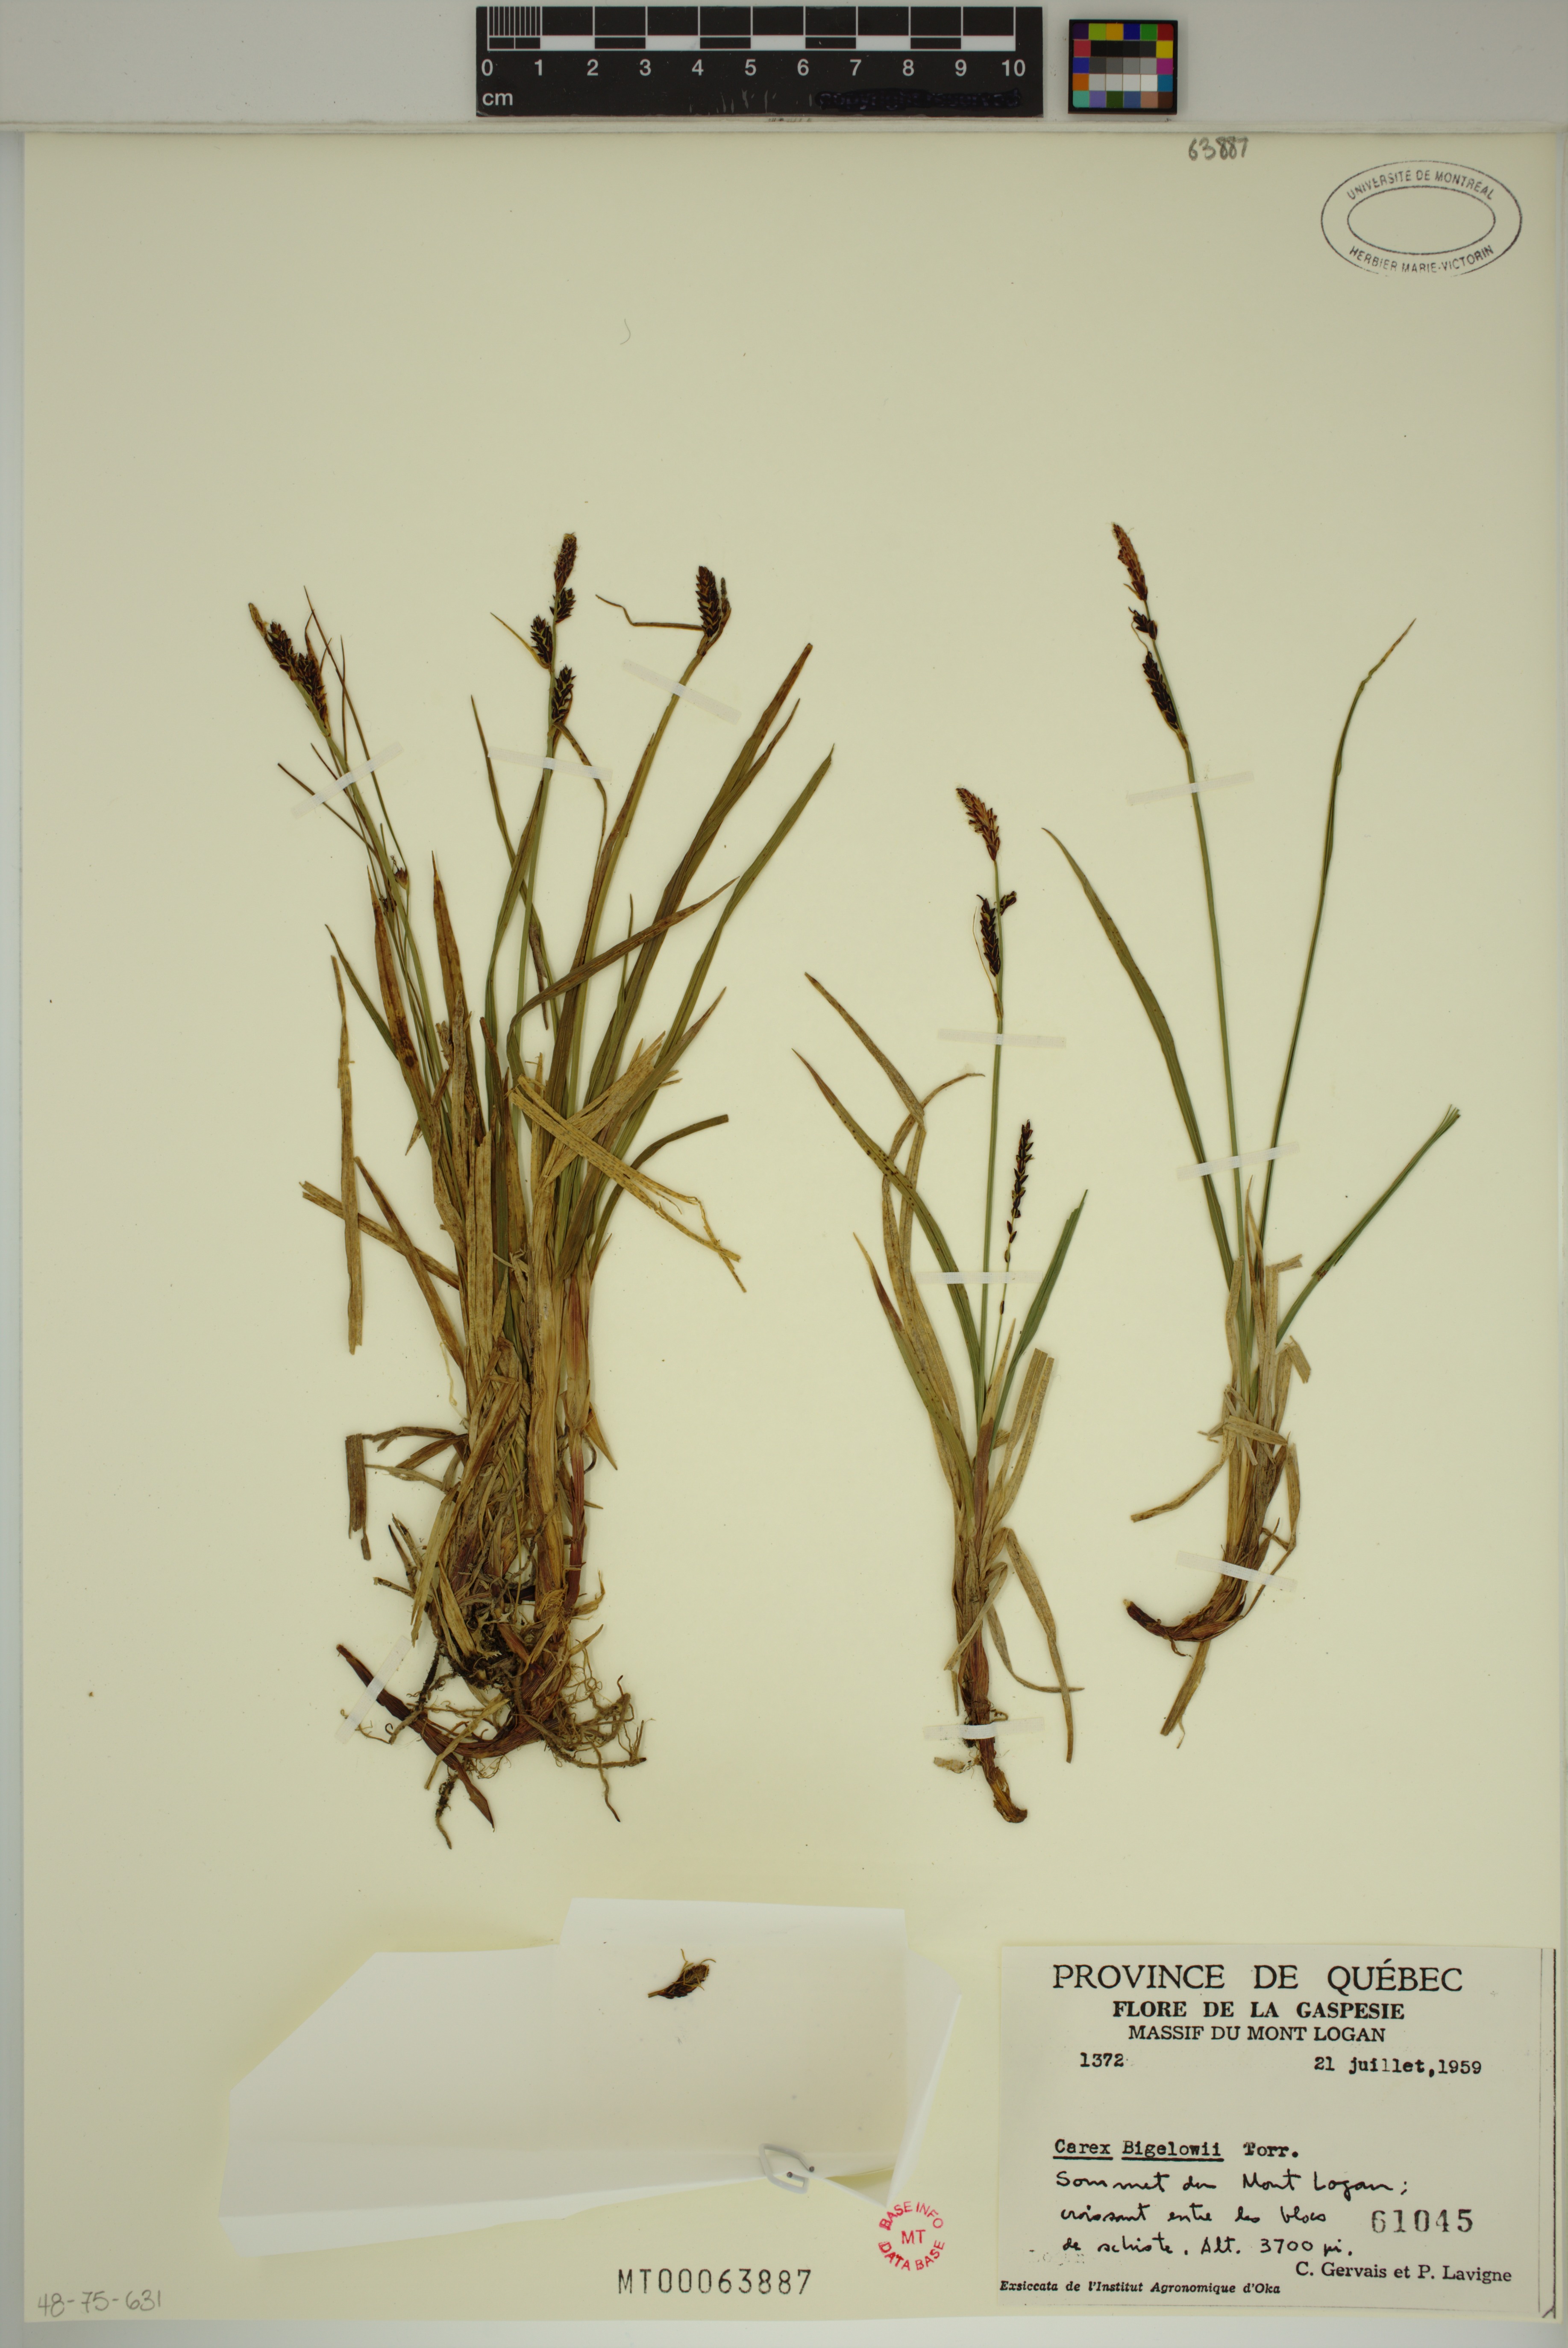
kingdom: Plantae
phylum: Tracheophyta
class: Liliopsida
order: Poales
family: Cyperaceae
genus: Carex
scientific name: Carex bigelowii
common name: Stiff sedge
